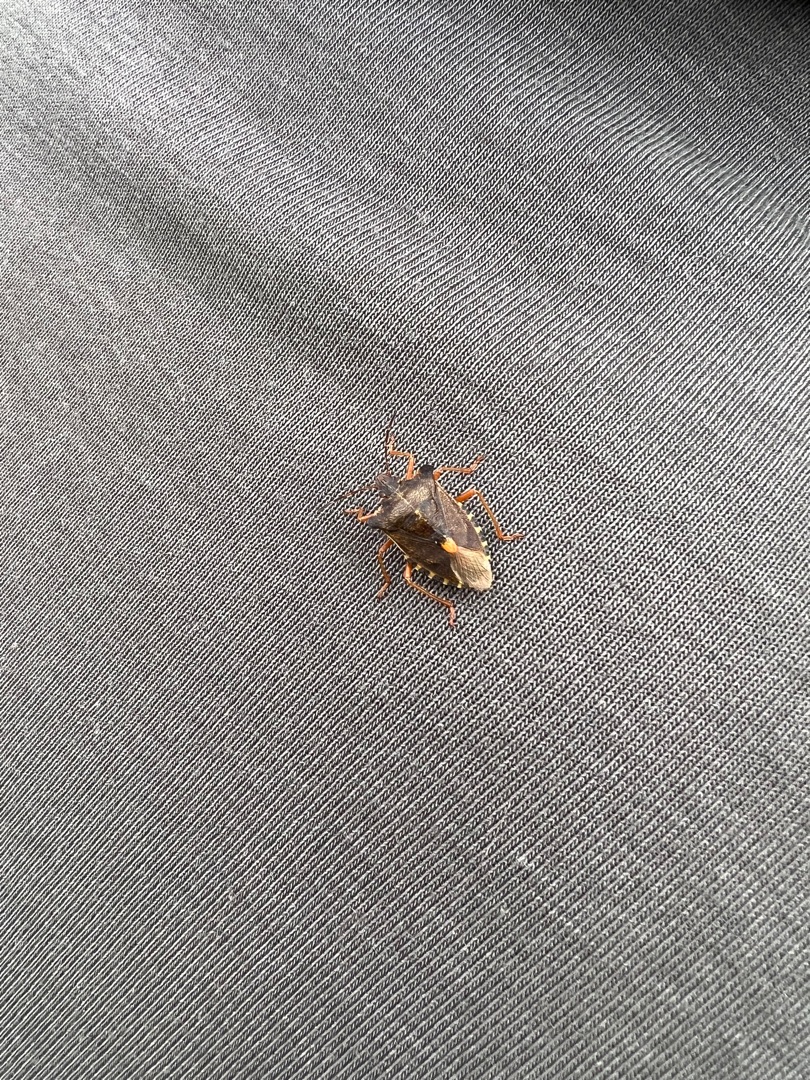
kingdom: Animalia
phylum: Arthropoda
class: Insecta
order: Hemiptera
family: Pentatomidae
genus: Pentatoma
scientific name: Pentatoma rufipes
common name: Rødbenet bredtæge
